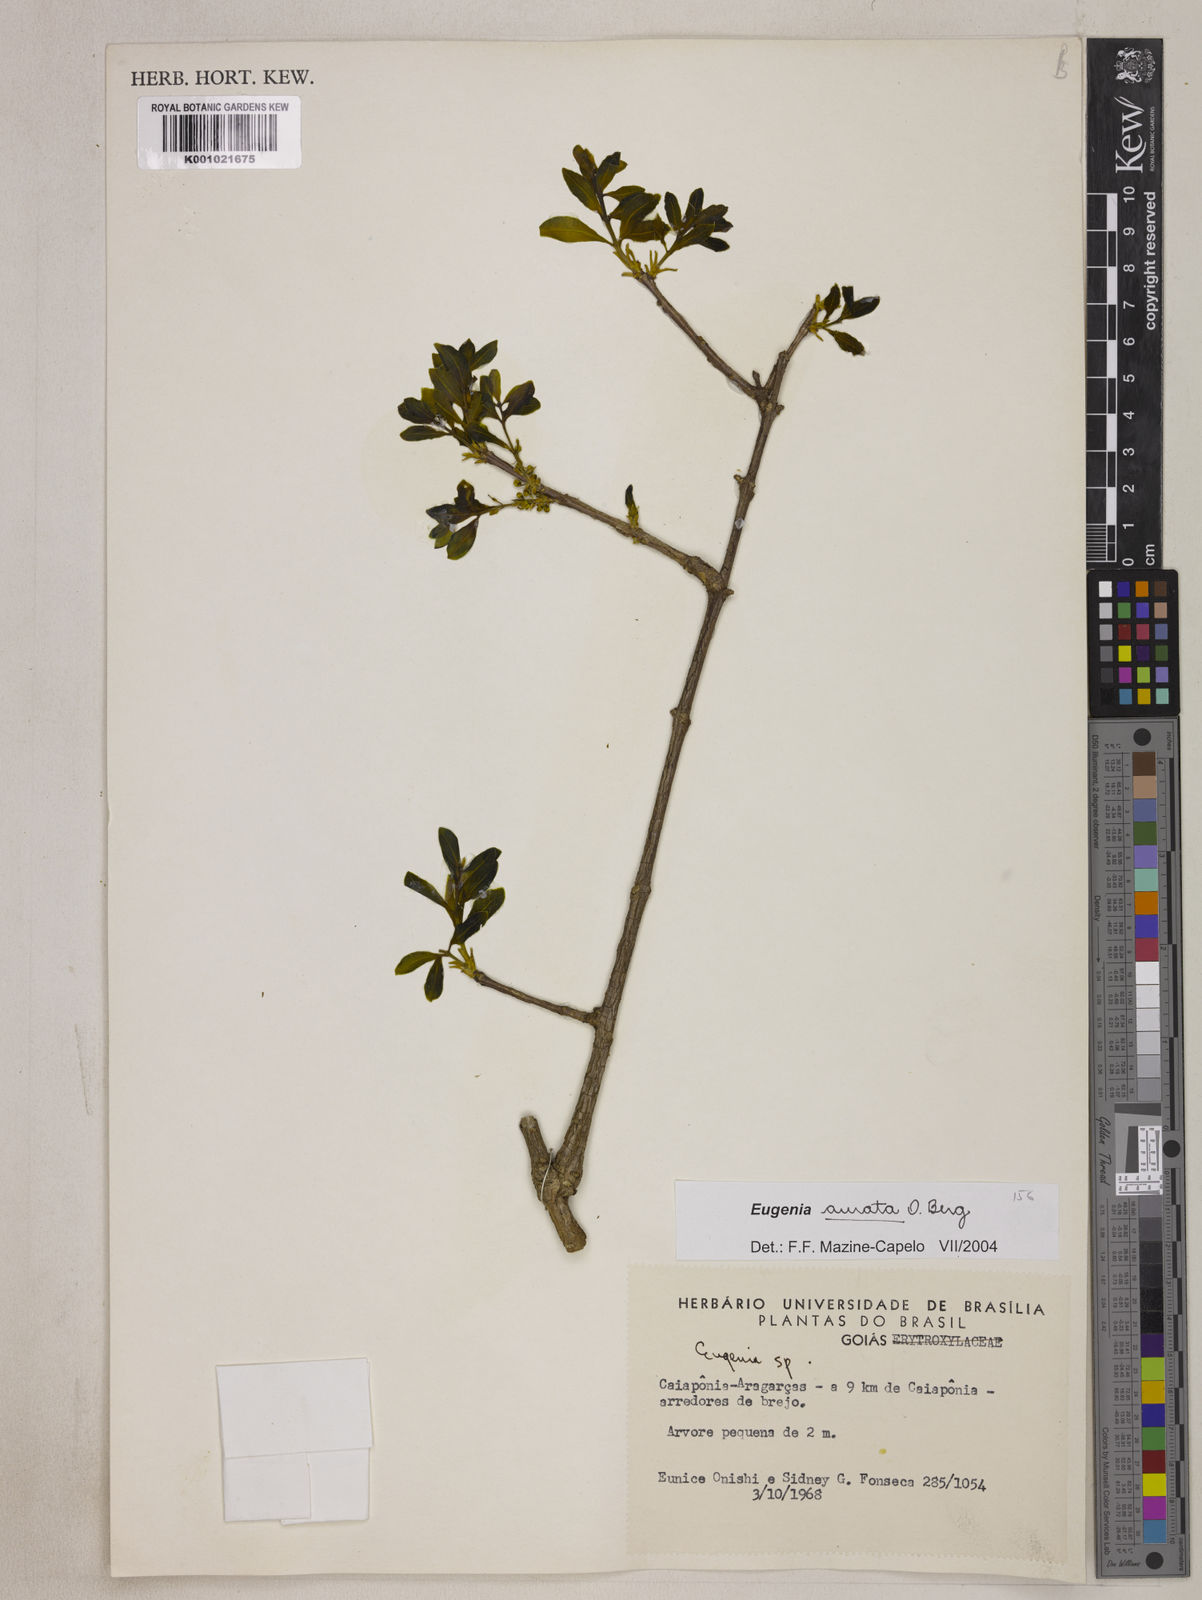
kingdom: Plantae
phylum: Tracheophyta
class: Magnoliopsida
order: Myrtales
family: Myrtaceae
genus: Eugenia
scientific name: Eugenia aurata
